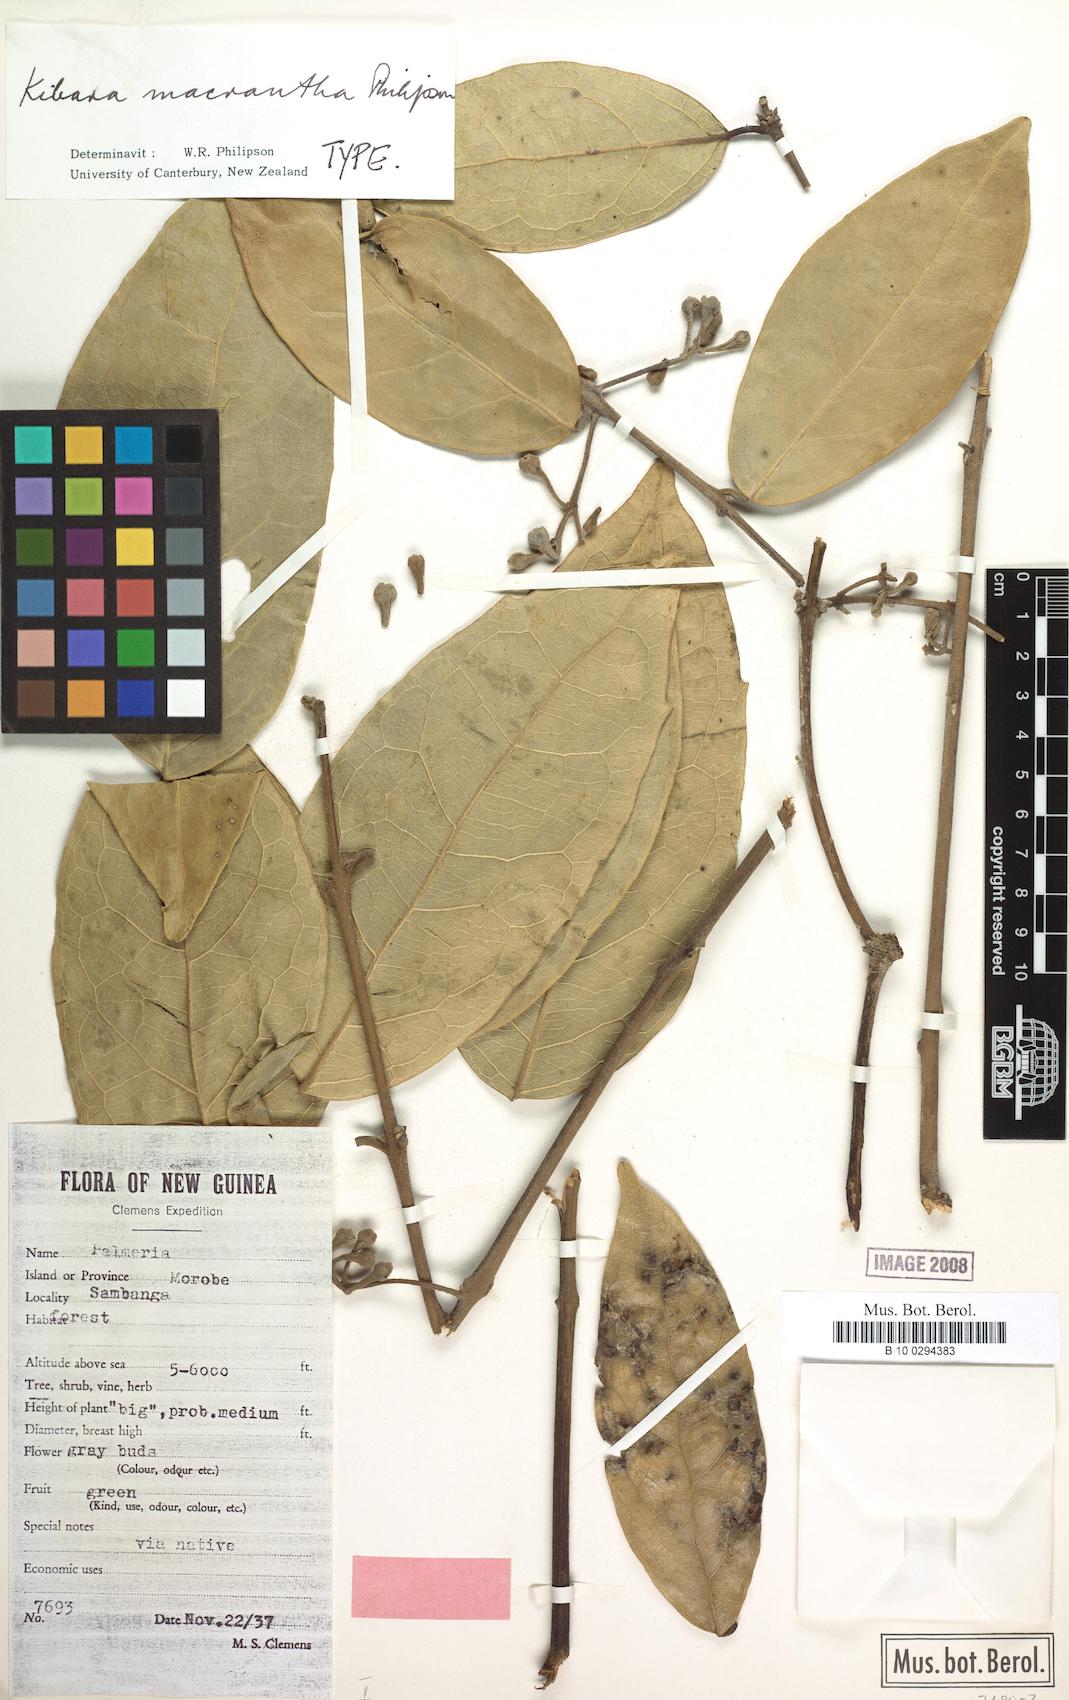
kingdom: Plantae
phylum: Tracheophyta
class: Magnoliopsida
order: Laurales
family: Monimiaceae
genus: Kibara
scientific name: Kibara macrantha
